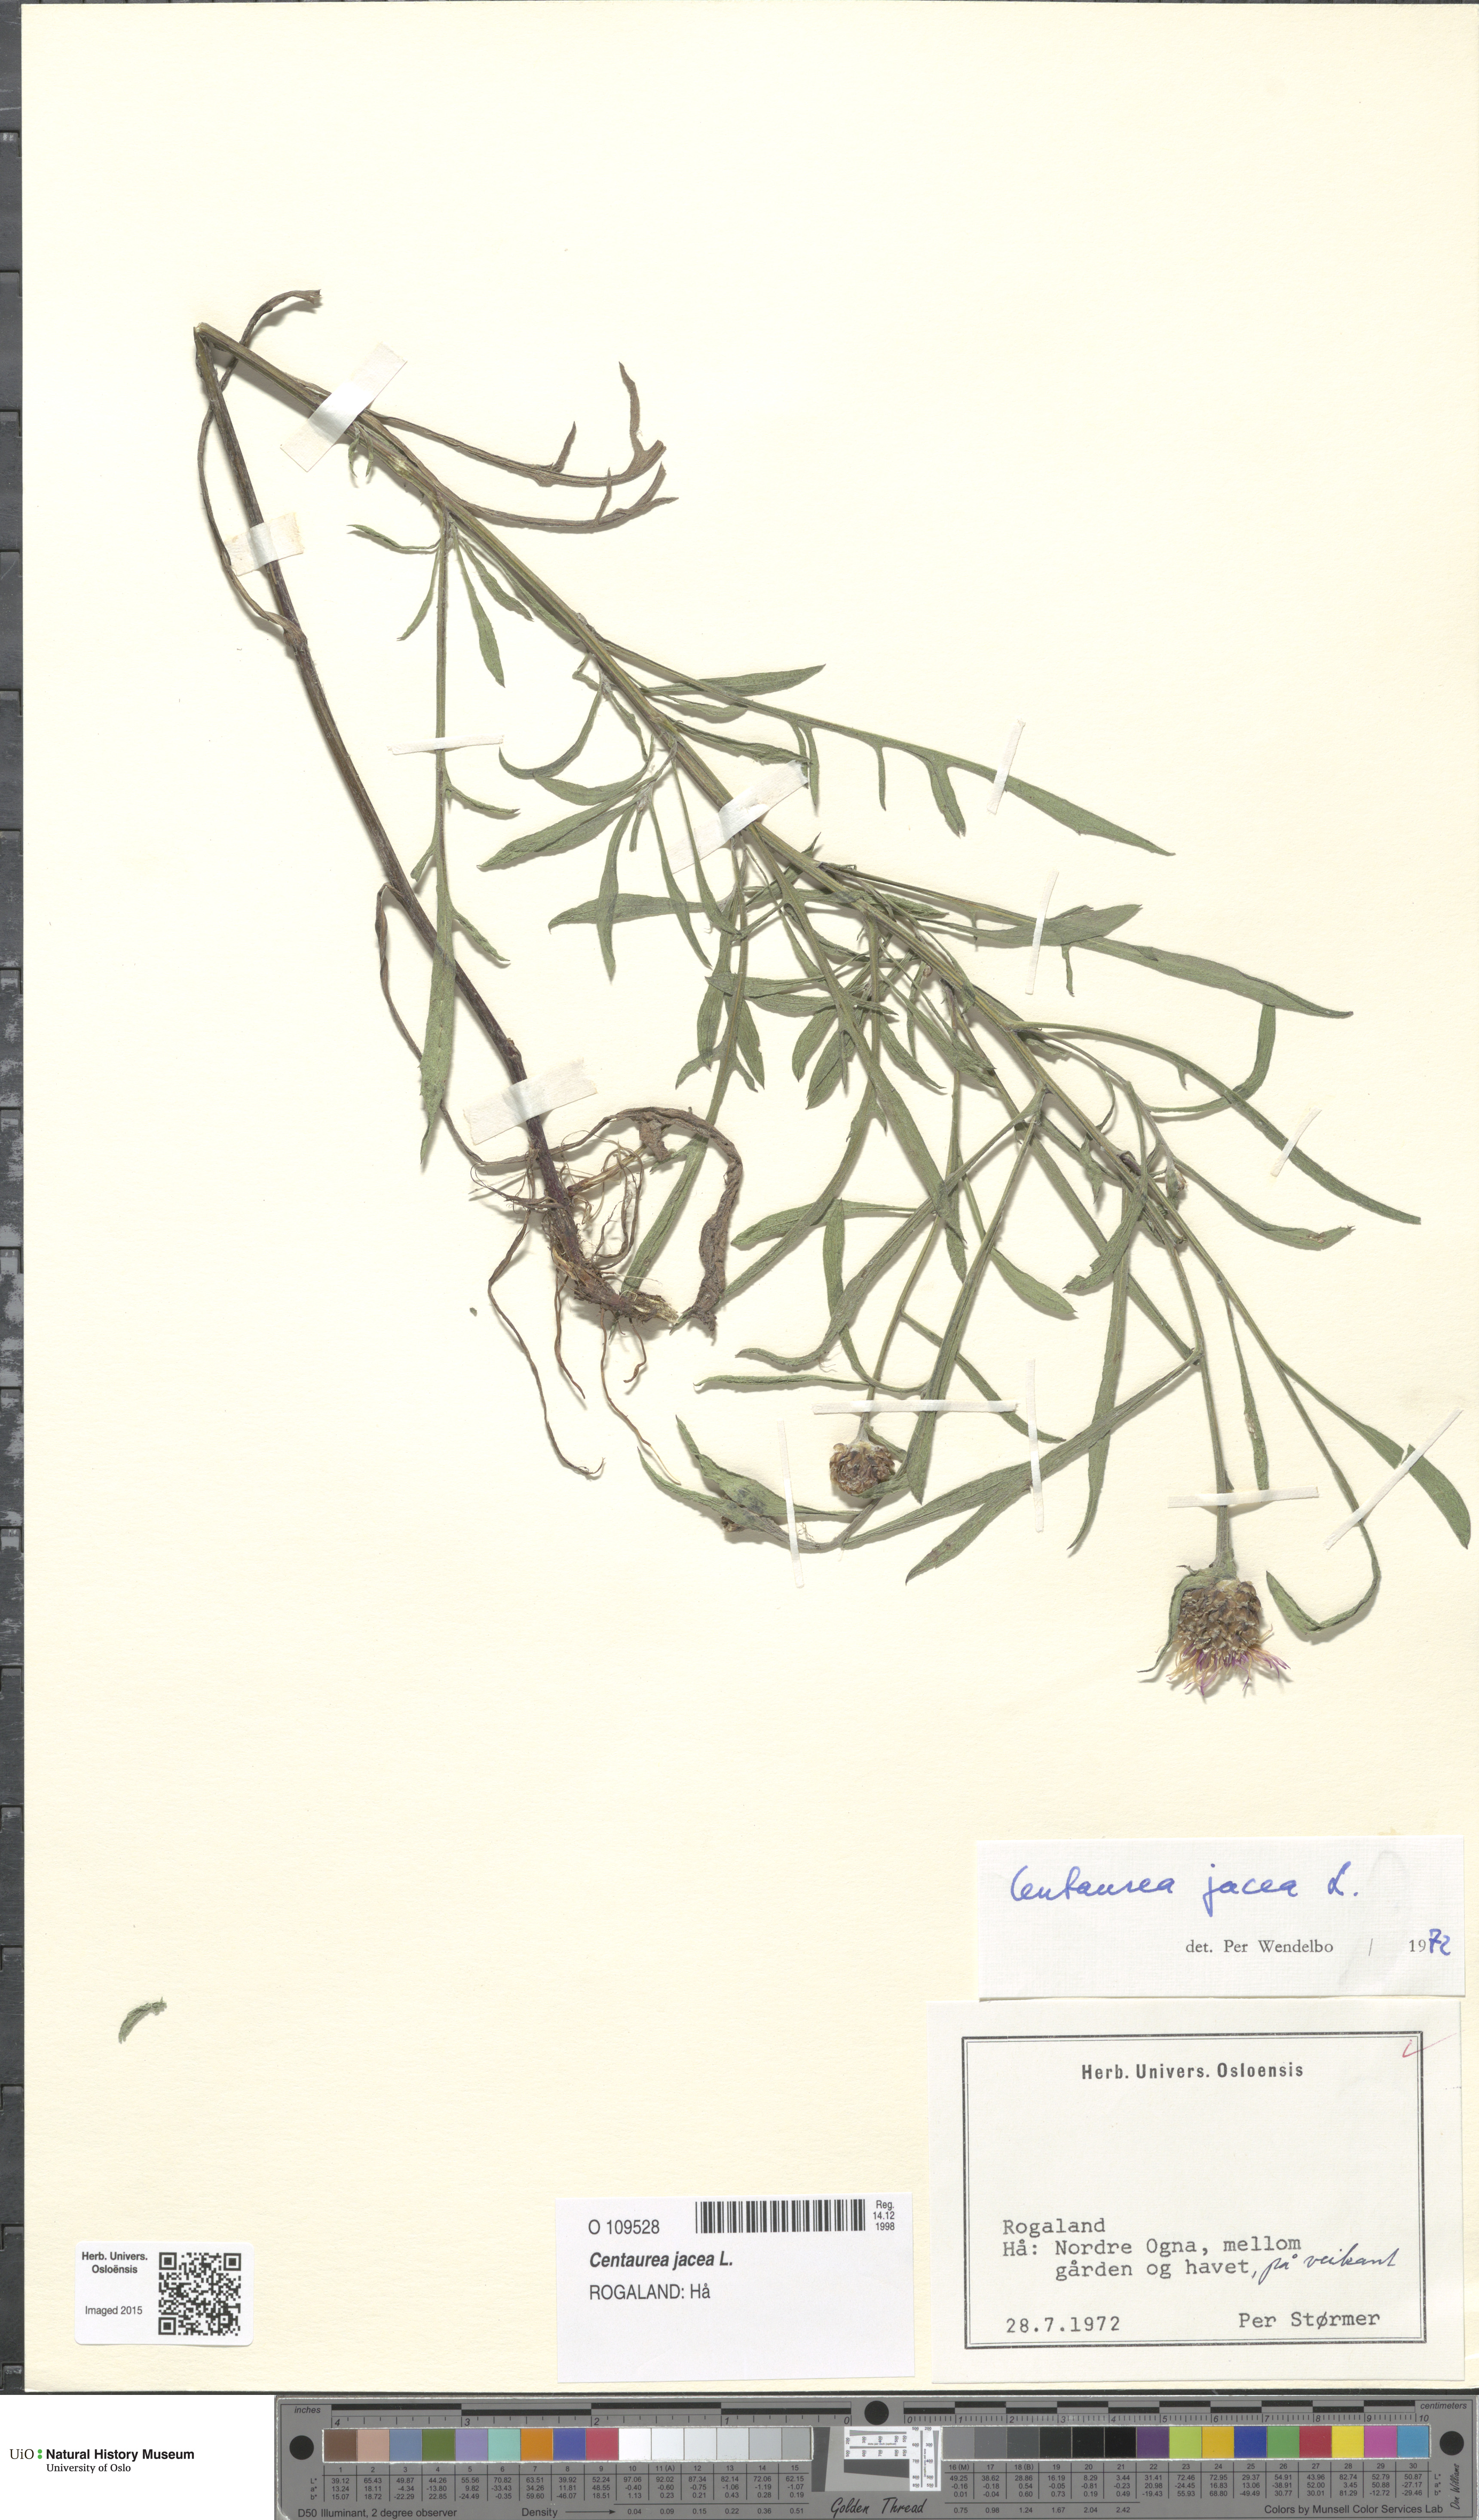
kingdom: Plantae
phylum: Tracheophyta
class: Magnoliopsida
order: Asterales
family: Asteraceae
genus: Centaurea
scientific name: Centaurea jacea
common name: Brown knapweed
